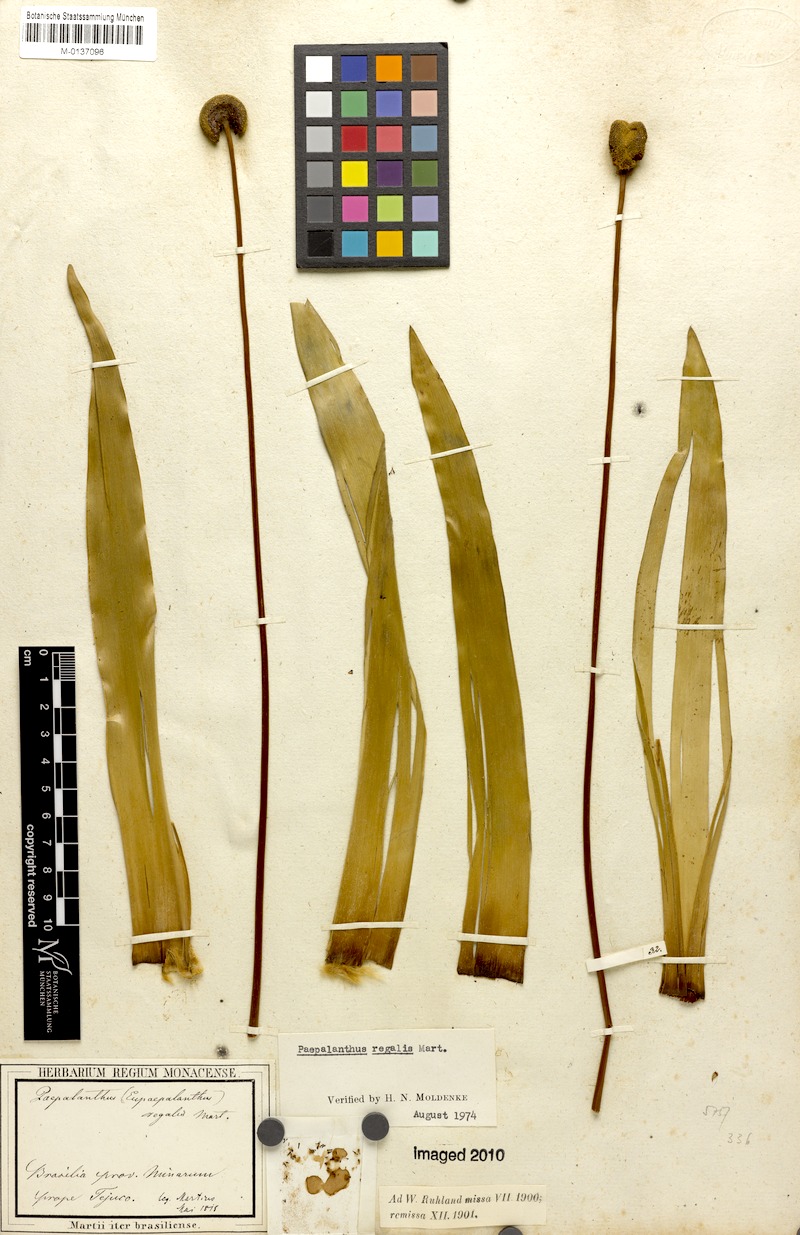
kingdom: Plantae
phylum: Tracheophyta
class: Liliopsida
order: Poales
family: Eriocaulaceae
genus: Paepalanthus
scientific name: Paepalanthus regalis
